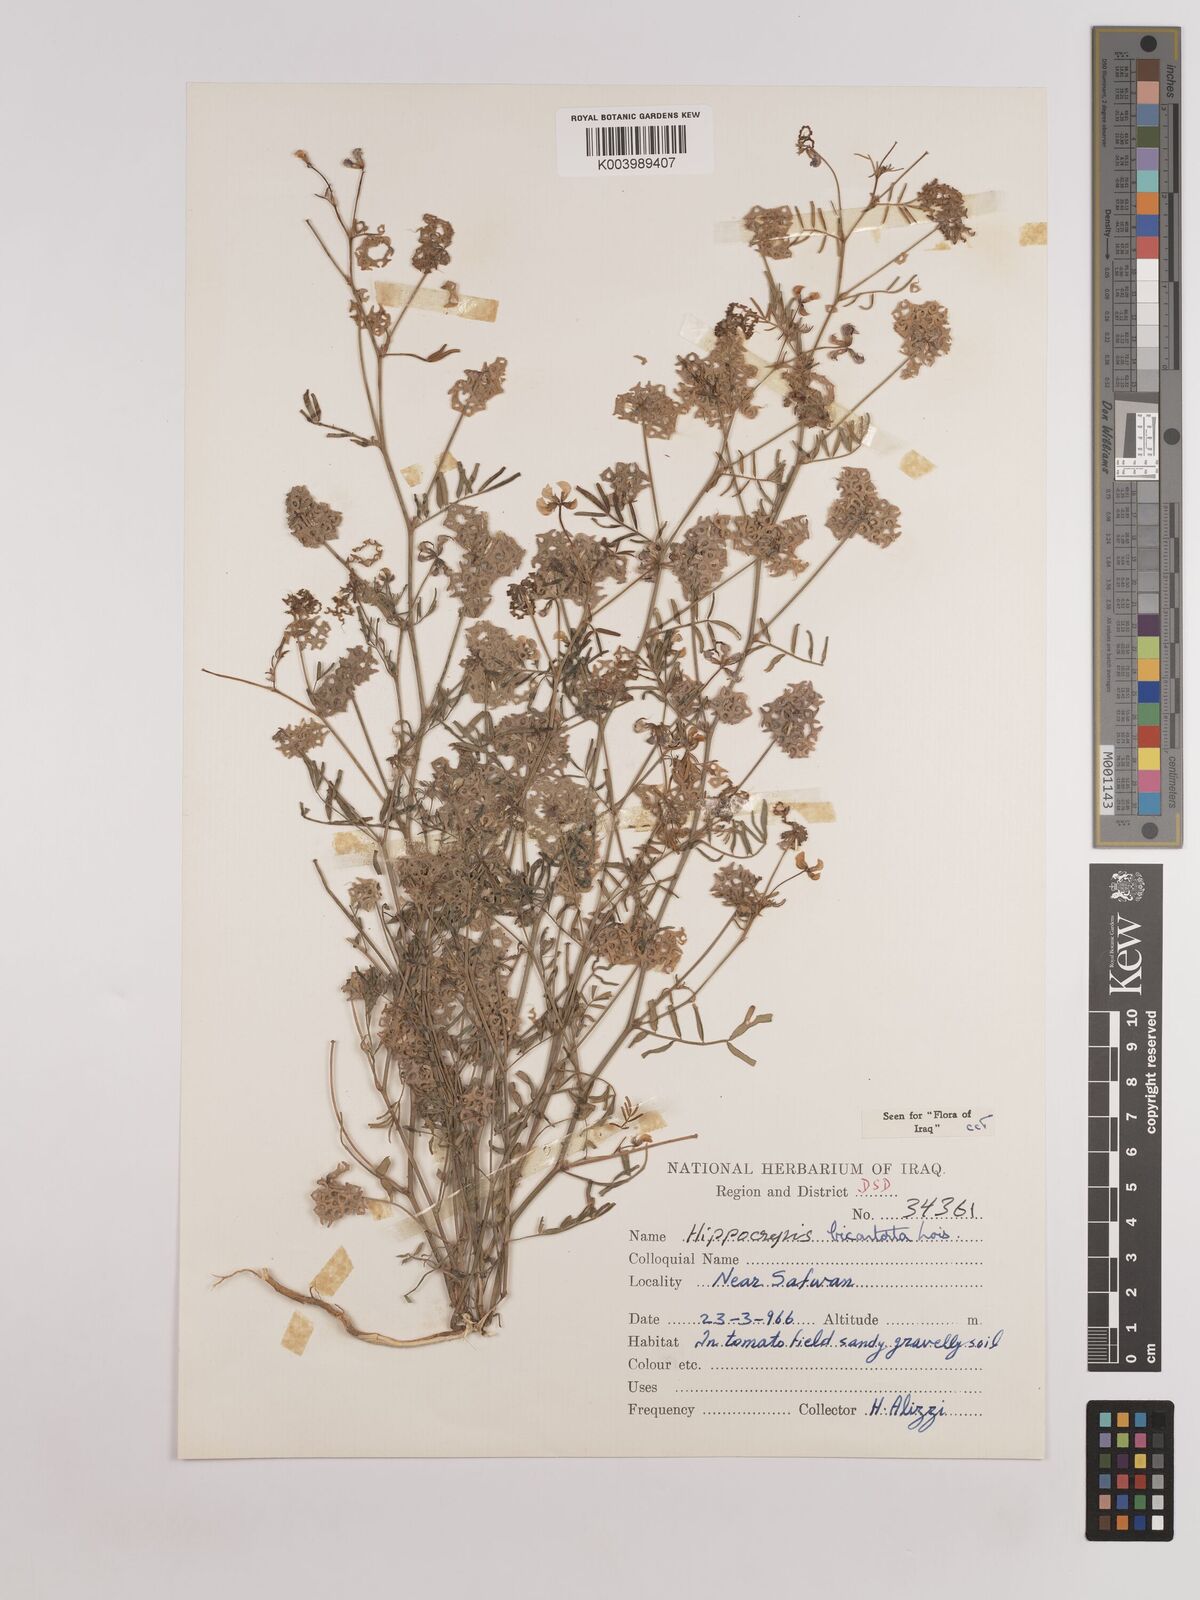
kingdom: Plantae
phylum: Tracheophyta
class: Magnoliopsida
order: Fabales
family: Fabaceae
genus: Hippocrepis
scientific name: Hippocrepis areolata
